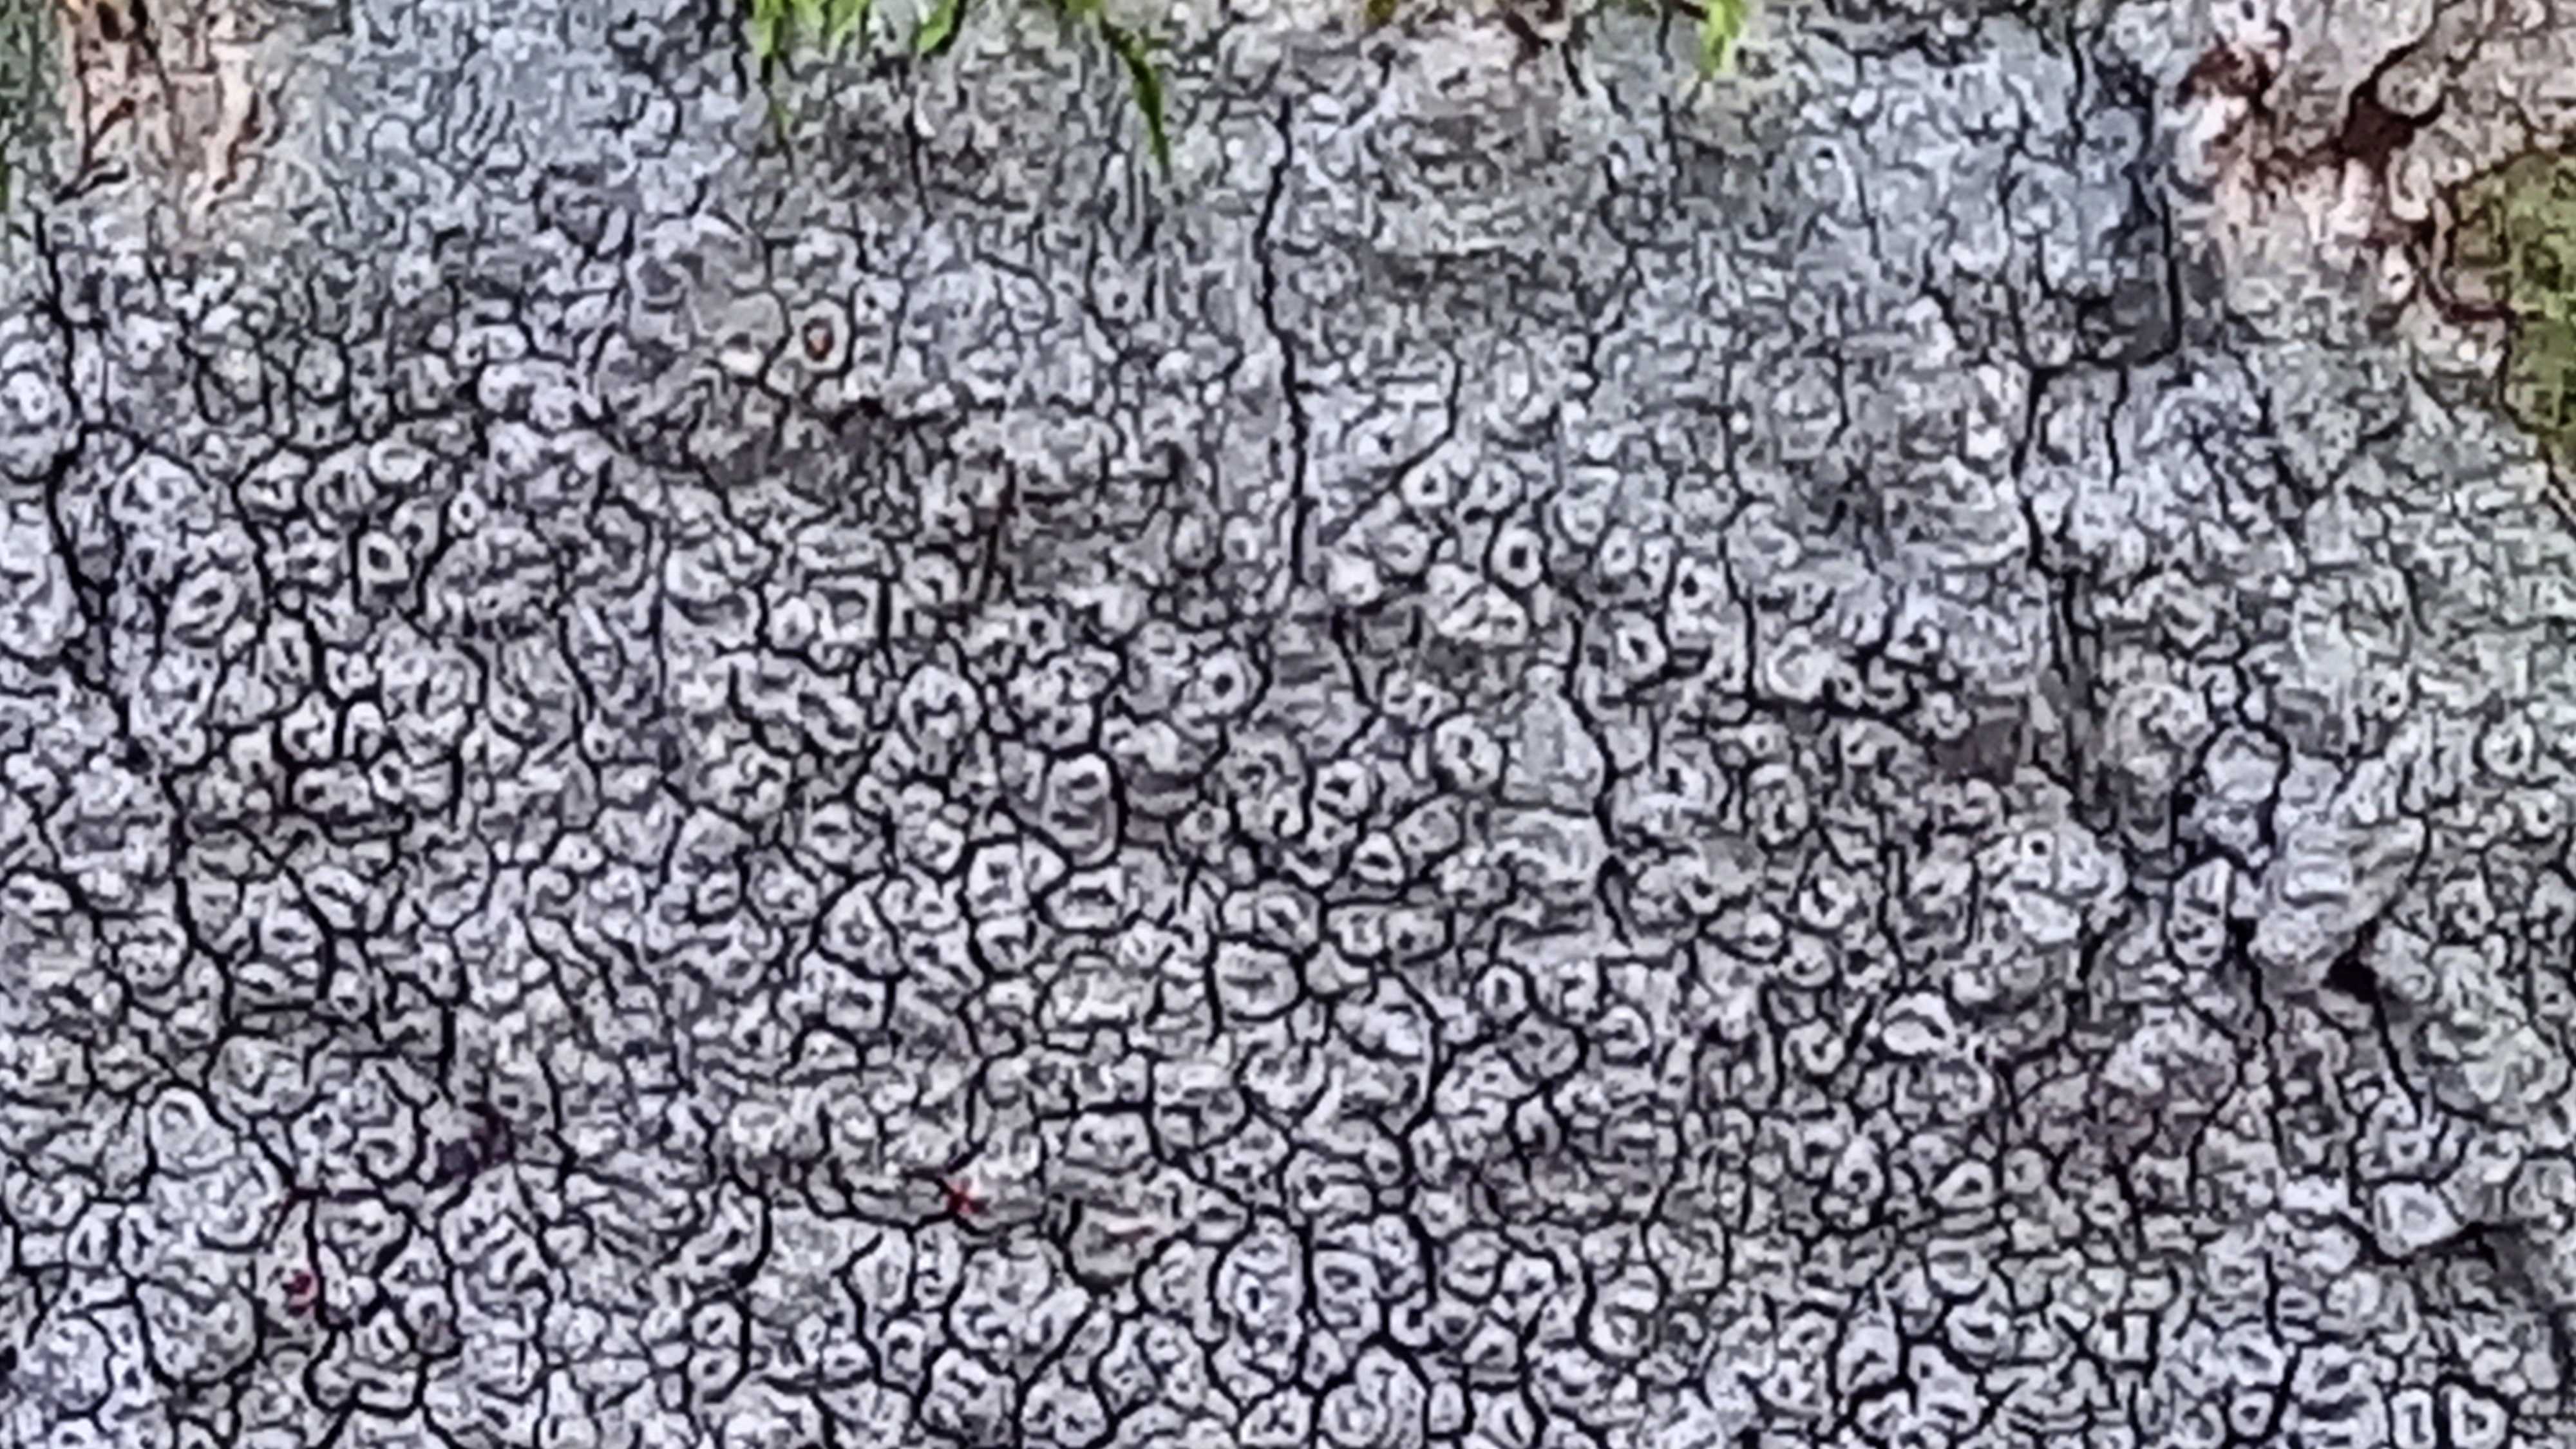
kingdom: Fungi
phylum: Ascomycota
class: Lecanoromycetes
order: Pertusariales
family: Pertusariaceae
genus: Pertusaria
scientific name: Pertusaria hymenea
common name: åben prikvortelav
